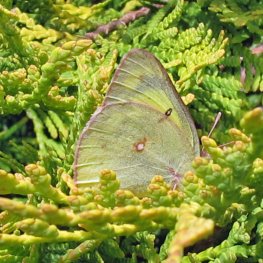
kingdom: Animalia
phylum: Arthropoda
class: Insecta
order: Lepidoptera
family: Pieridae
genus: Colias
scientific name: Colias philodice
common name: Clouded Sulphur
